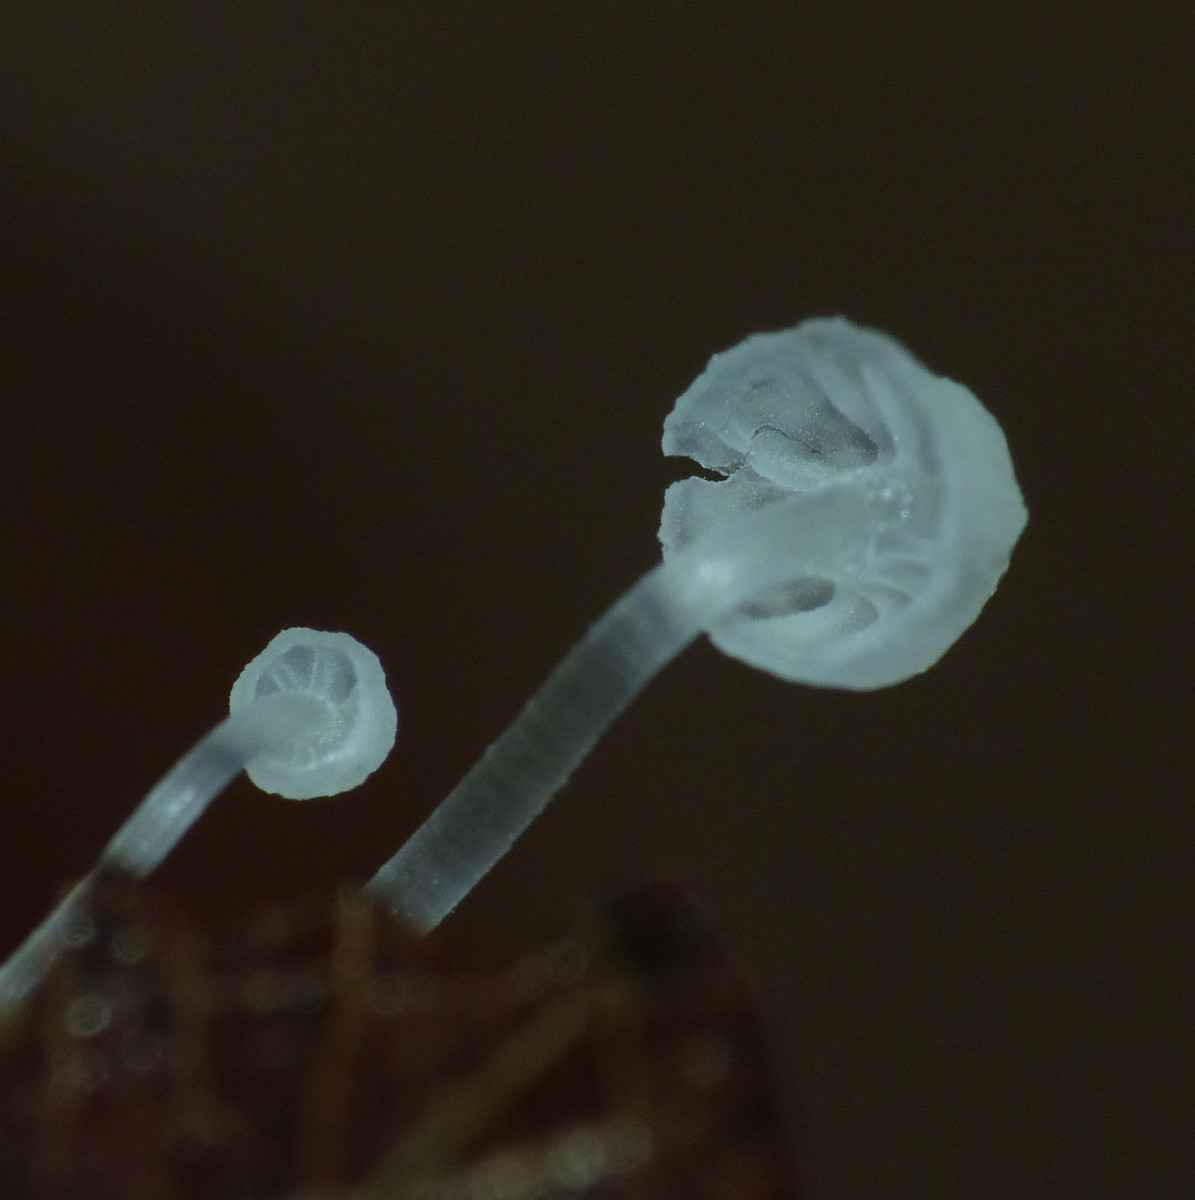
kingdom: Fungi
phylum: Basidiomycota
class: Agaricomycetes
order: Agaricales
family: Mycenaceae
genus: Mycena
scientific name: Mycena polyadelpha
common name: egeblads-huesvamp
